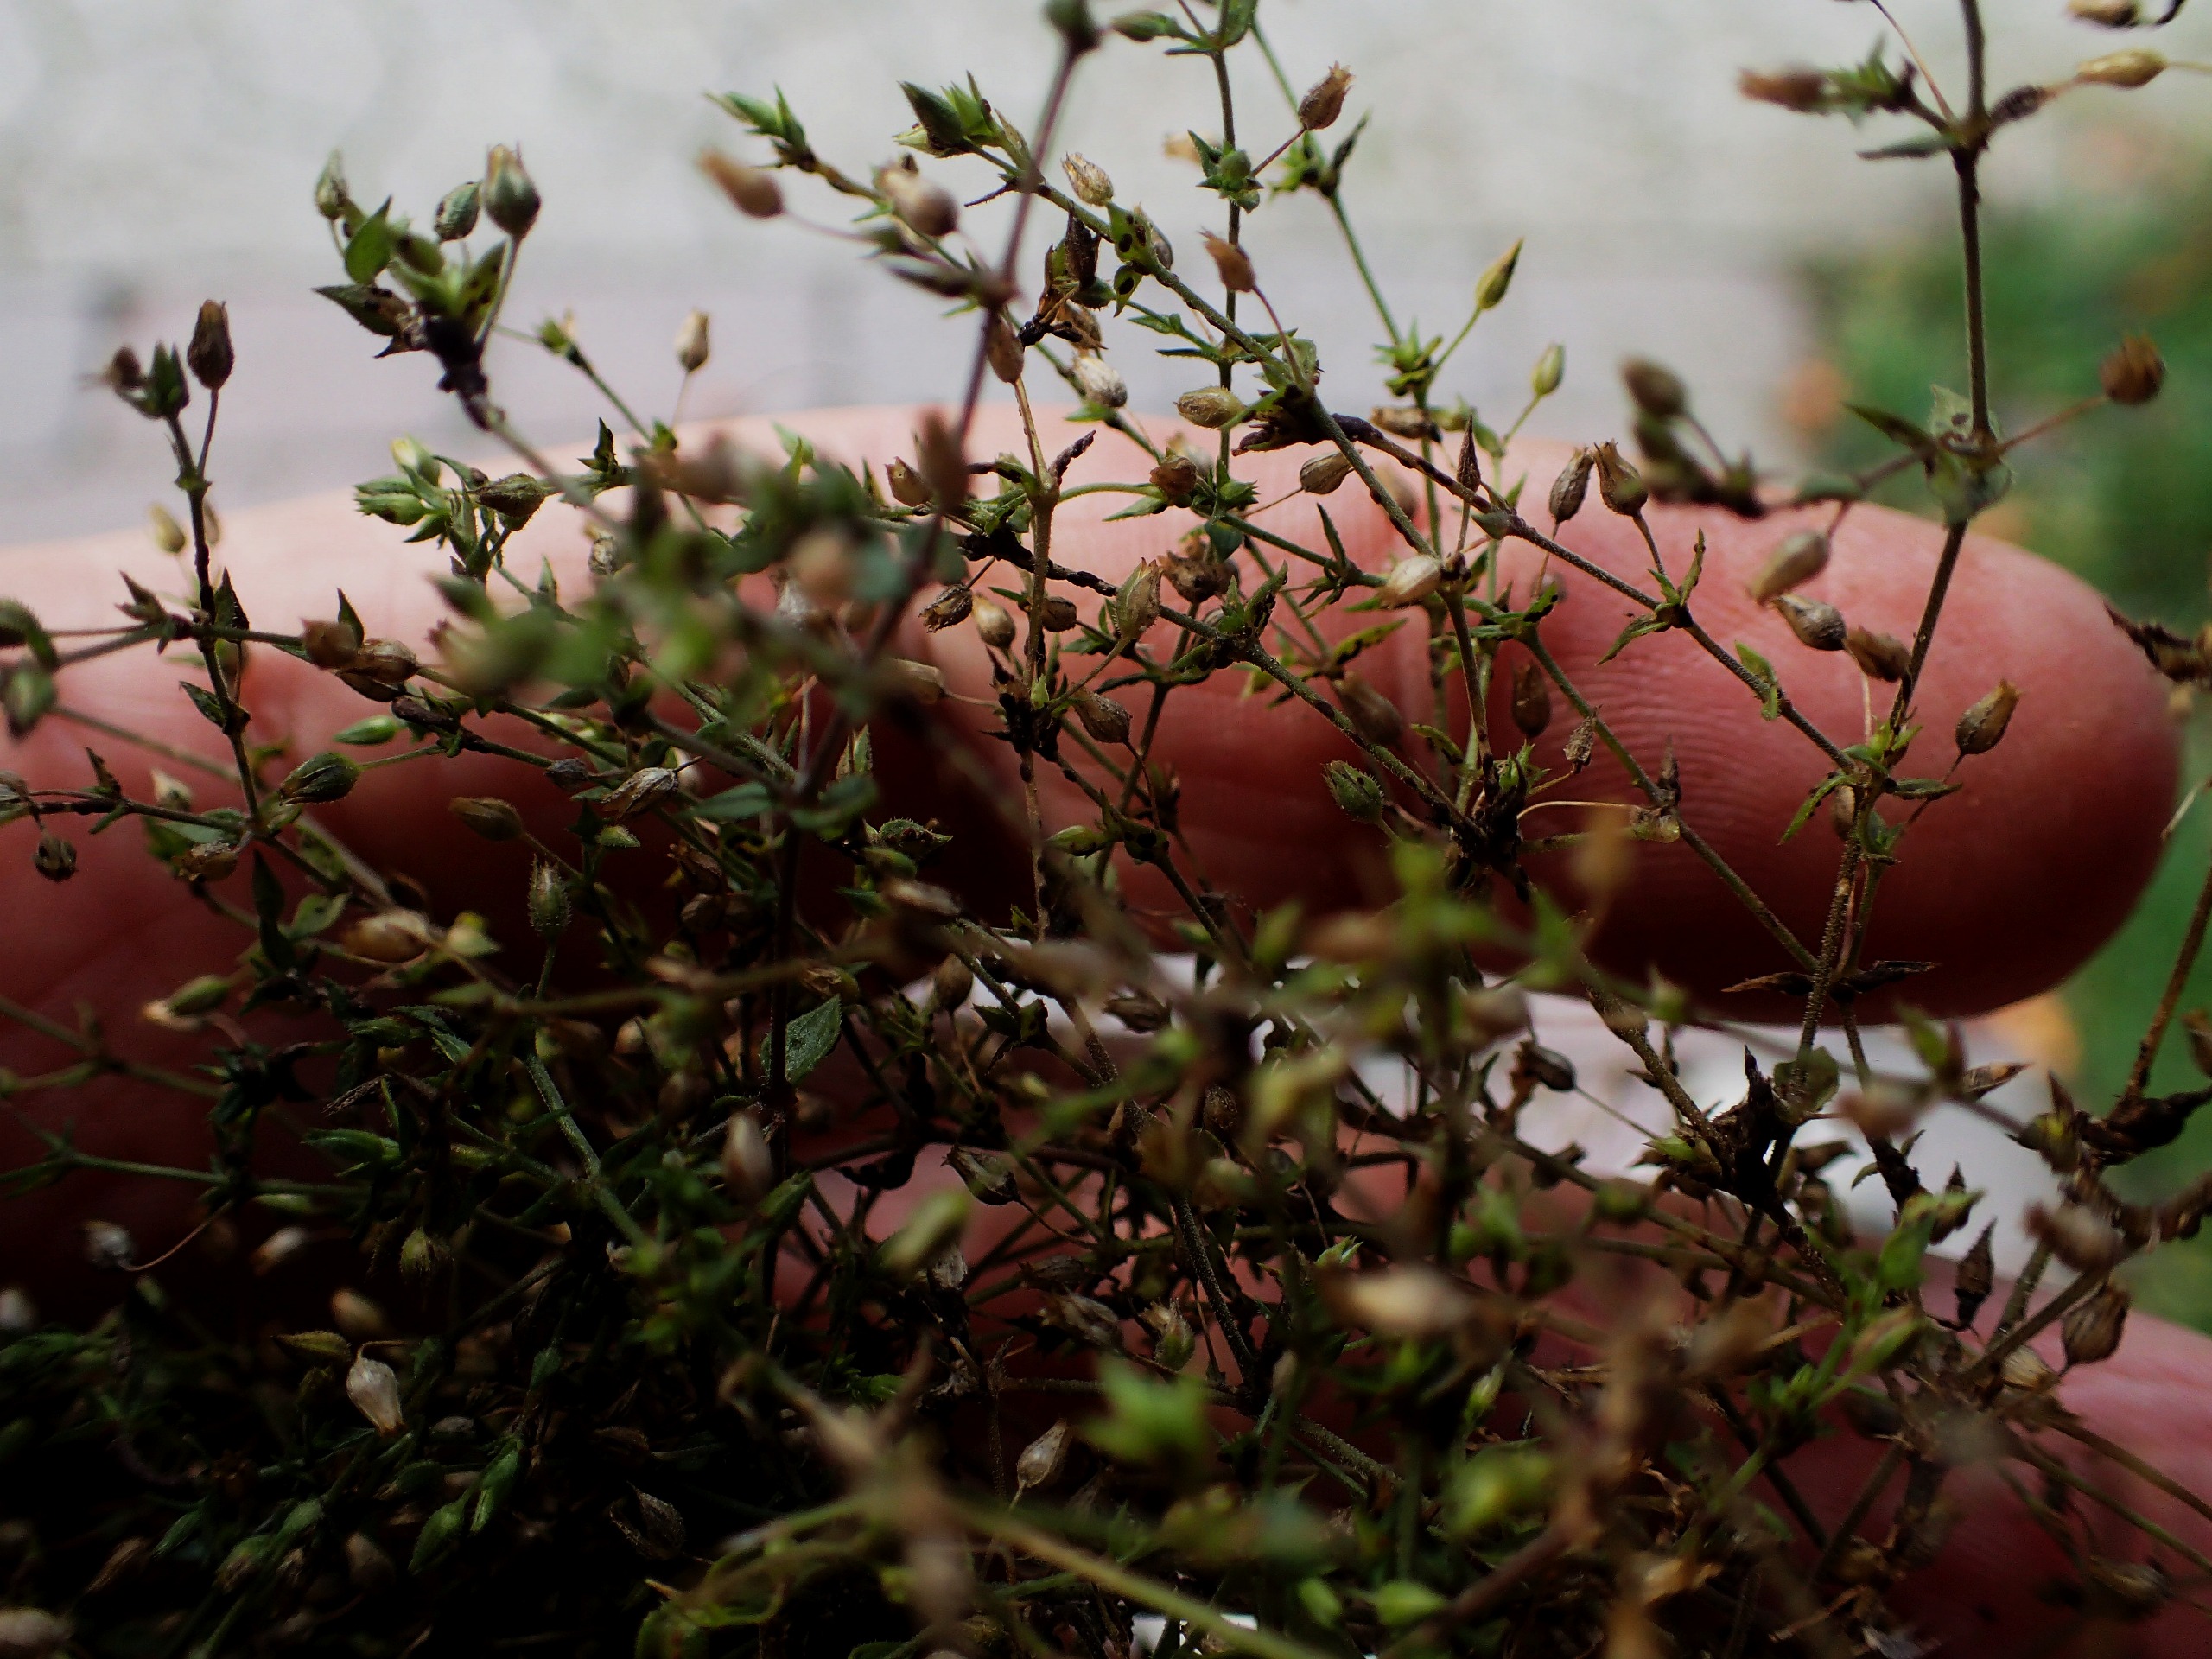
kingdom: Plantae
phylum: Tracheophyta
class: Magnoliopsida
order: Caryophyllales
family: Caryophyllaceae
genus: Arenaria
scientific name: Arenaria serpyllifolia
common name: Almindelig markarve
